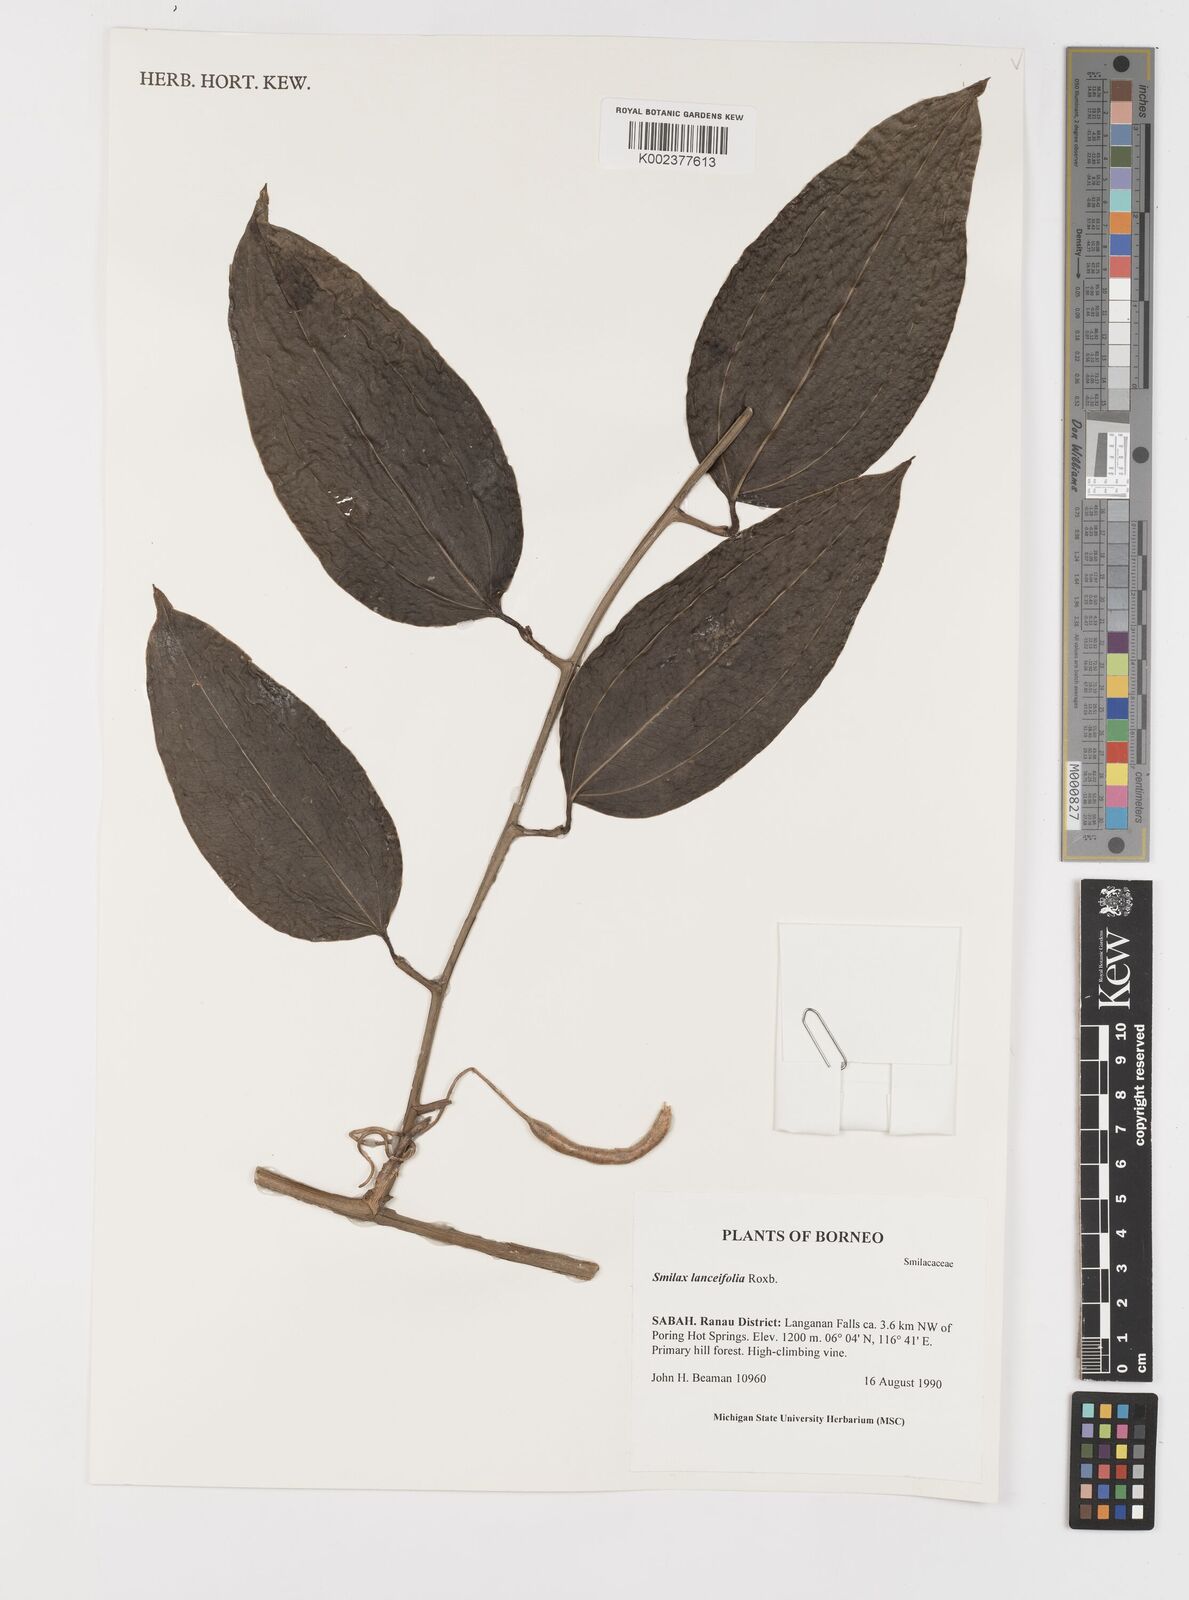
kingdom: Plantae
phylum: Tracheophyta
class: Liliopsida
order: Liliales
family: Smilacaceae
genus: Smilax
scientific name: Smilax lanceifolia
